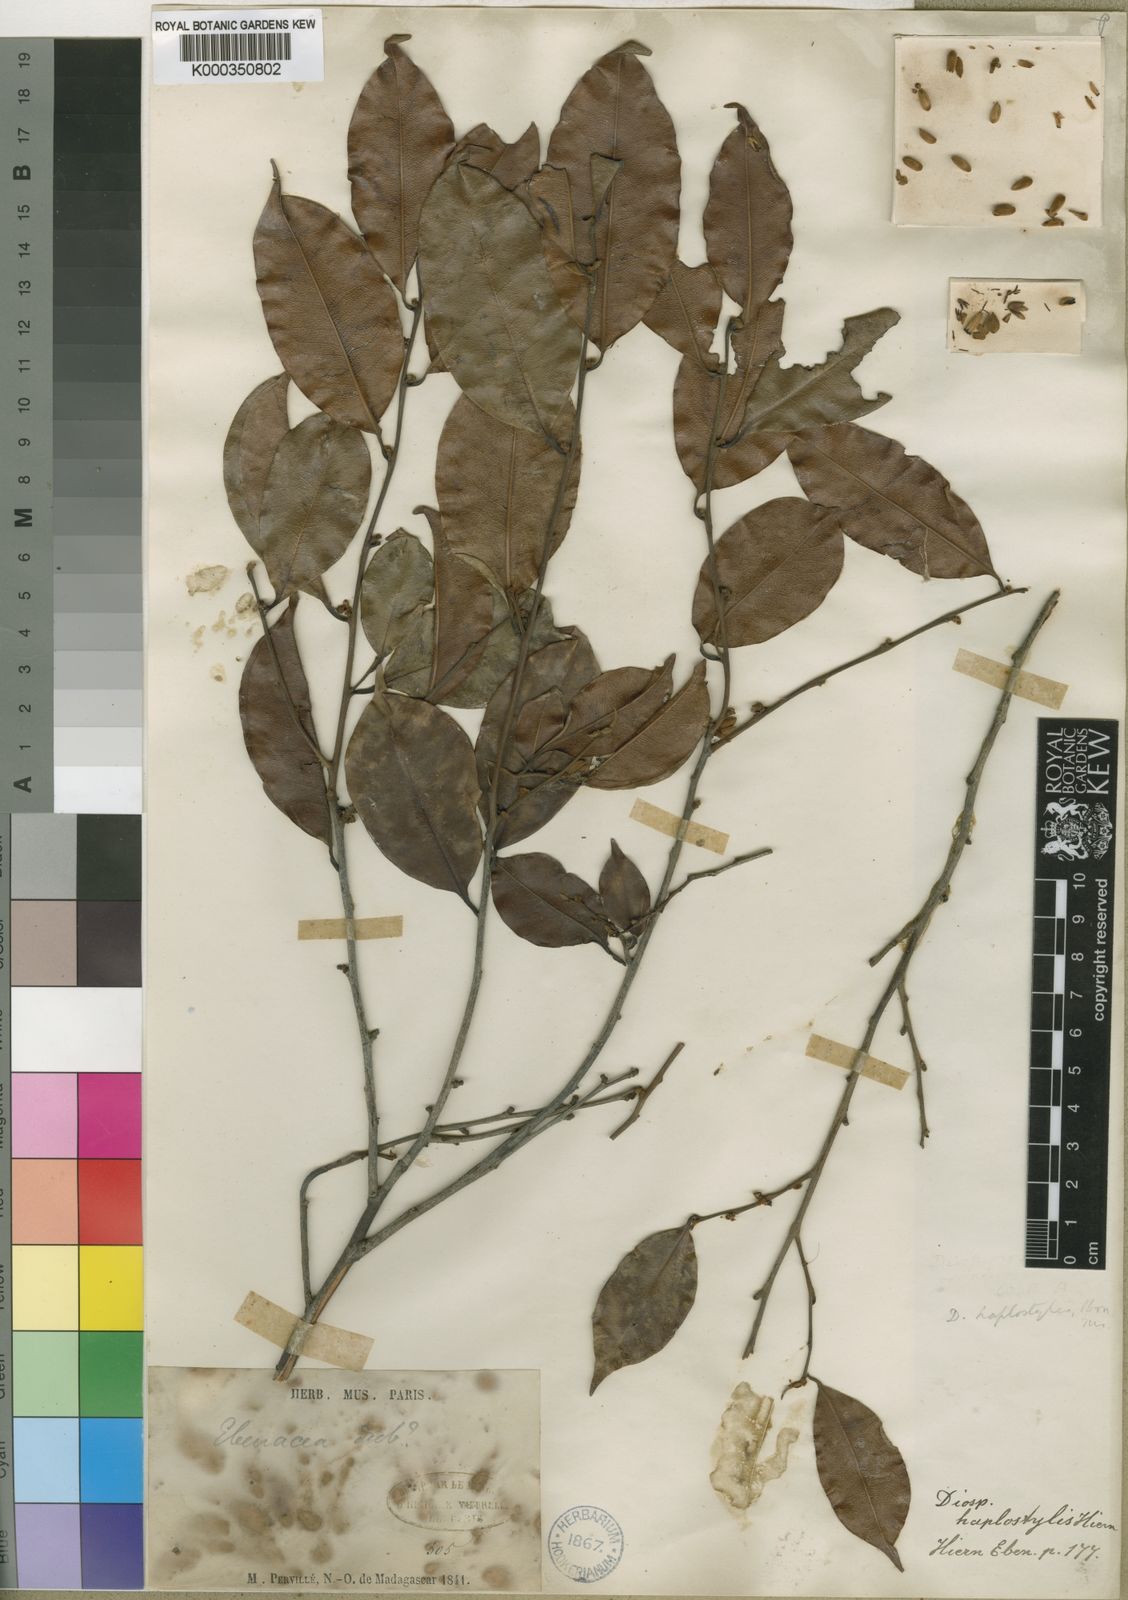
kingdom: Plantae
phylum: Tracheophyta
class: Magnoliopsida
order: Ericales
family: Ebenaceae
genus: Diospyros
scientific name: Diospyros haplostylis
